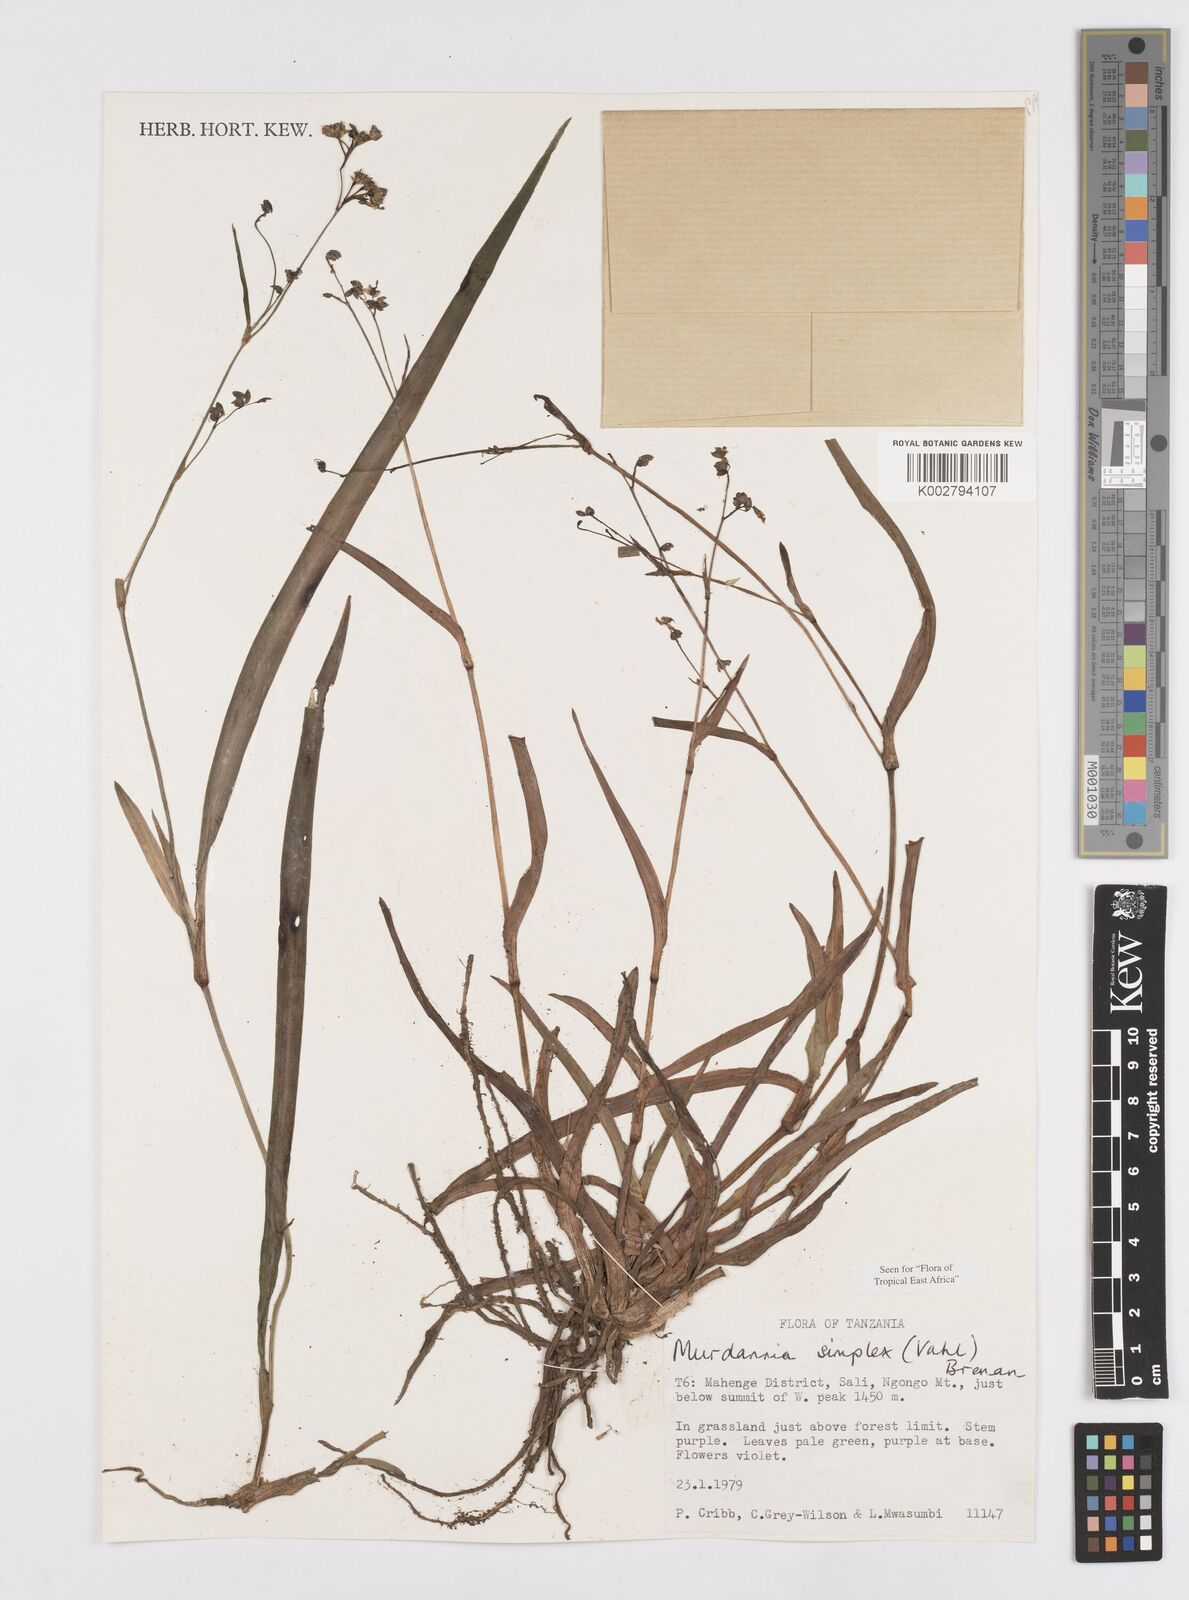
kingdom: Plantae
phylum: Tracheophyta
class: Liliopsida
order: Commelinales
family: Commelinaceae
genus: Murdannia
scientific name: Murdannia simplex
